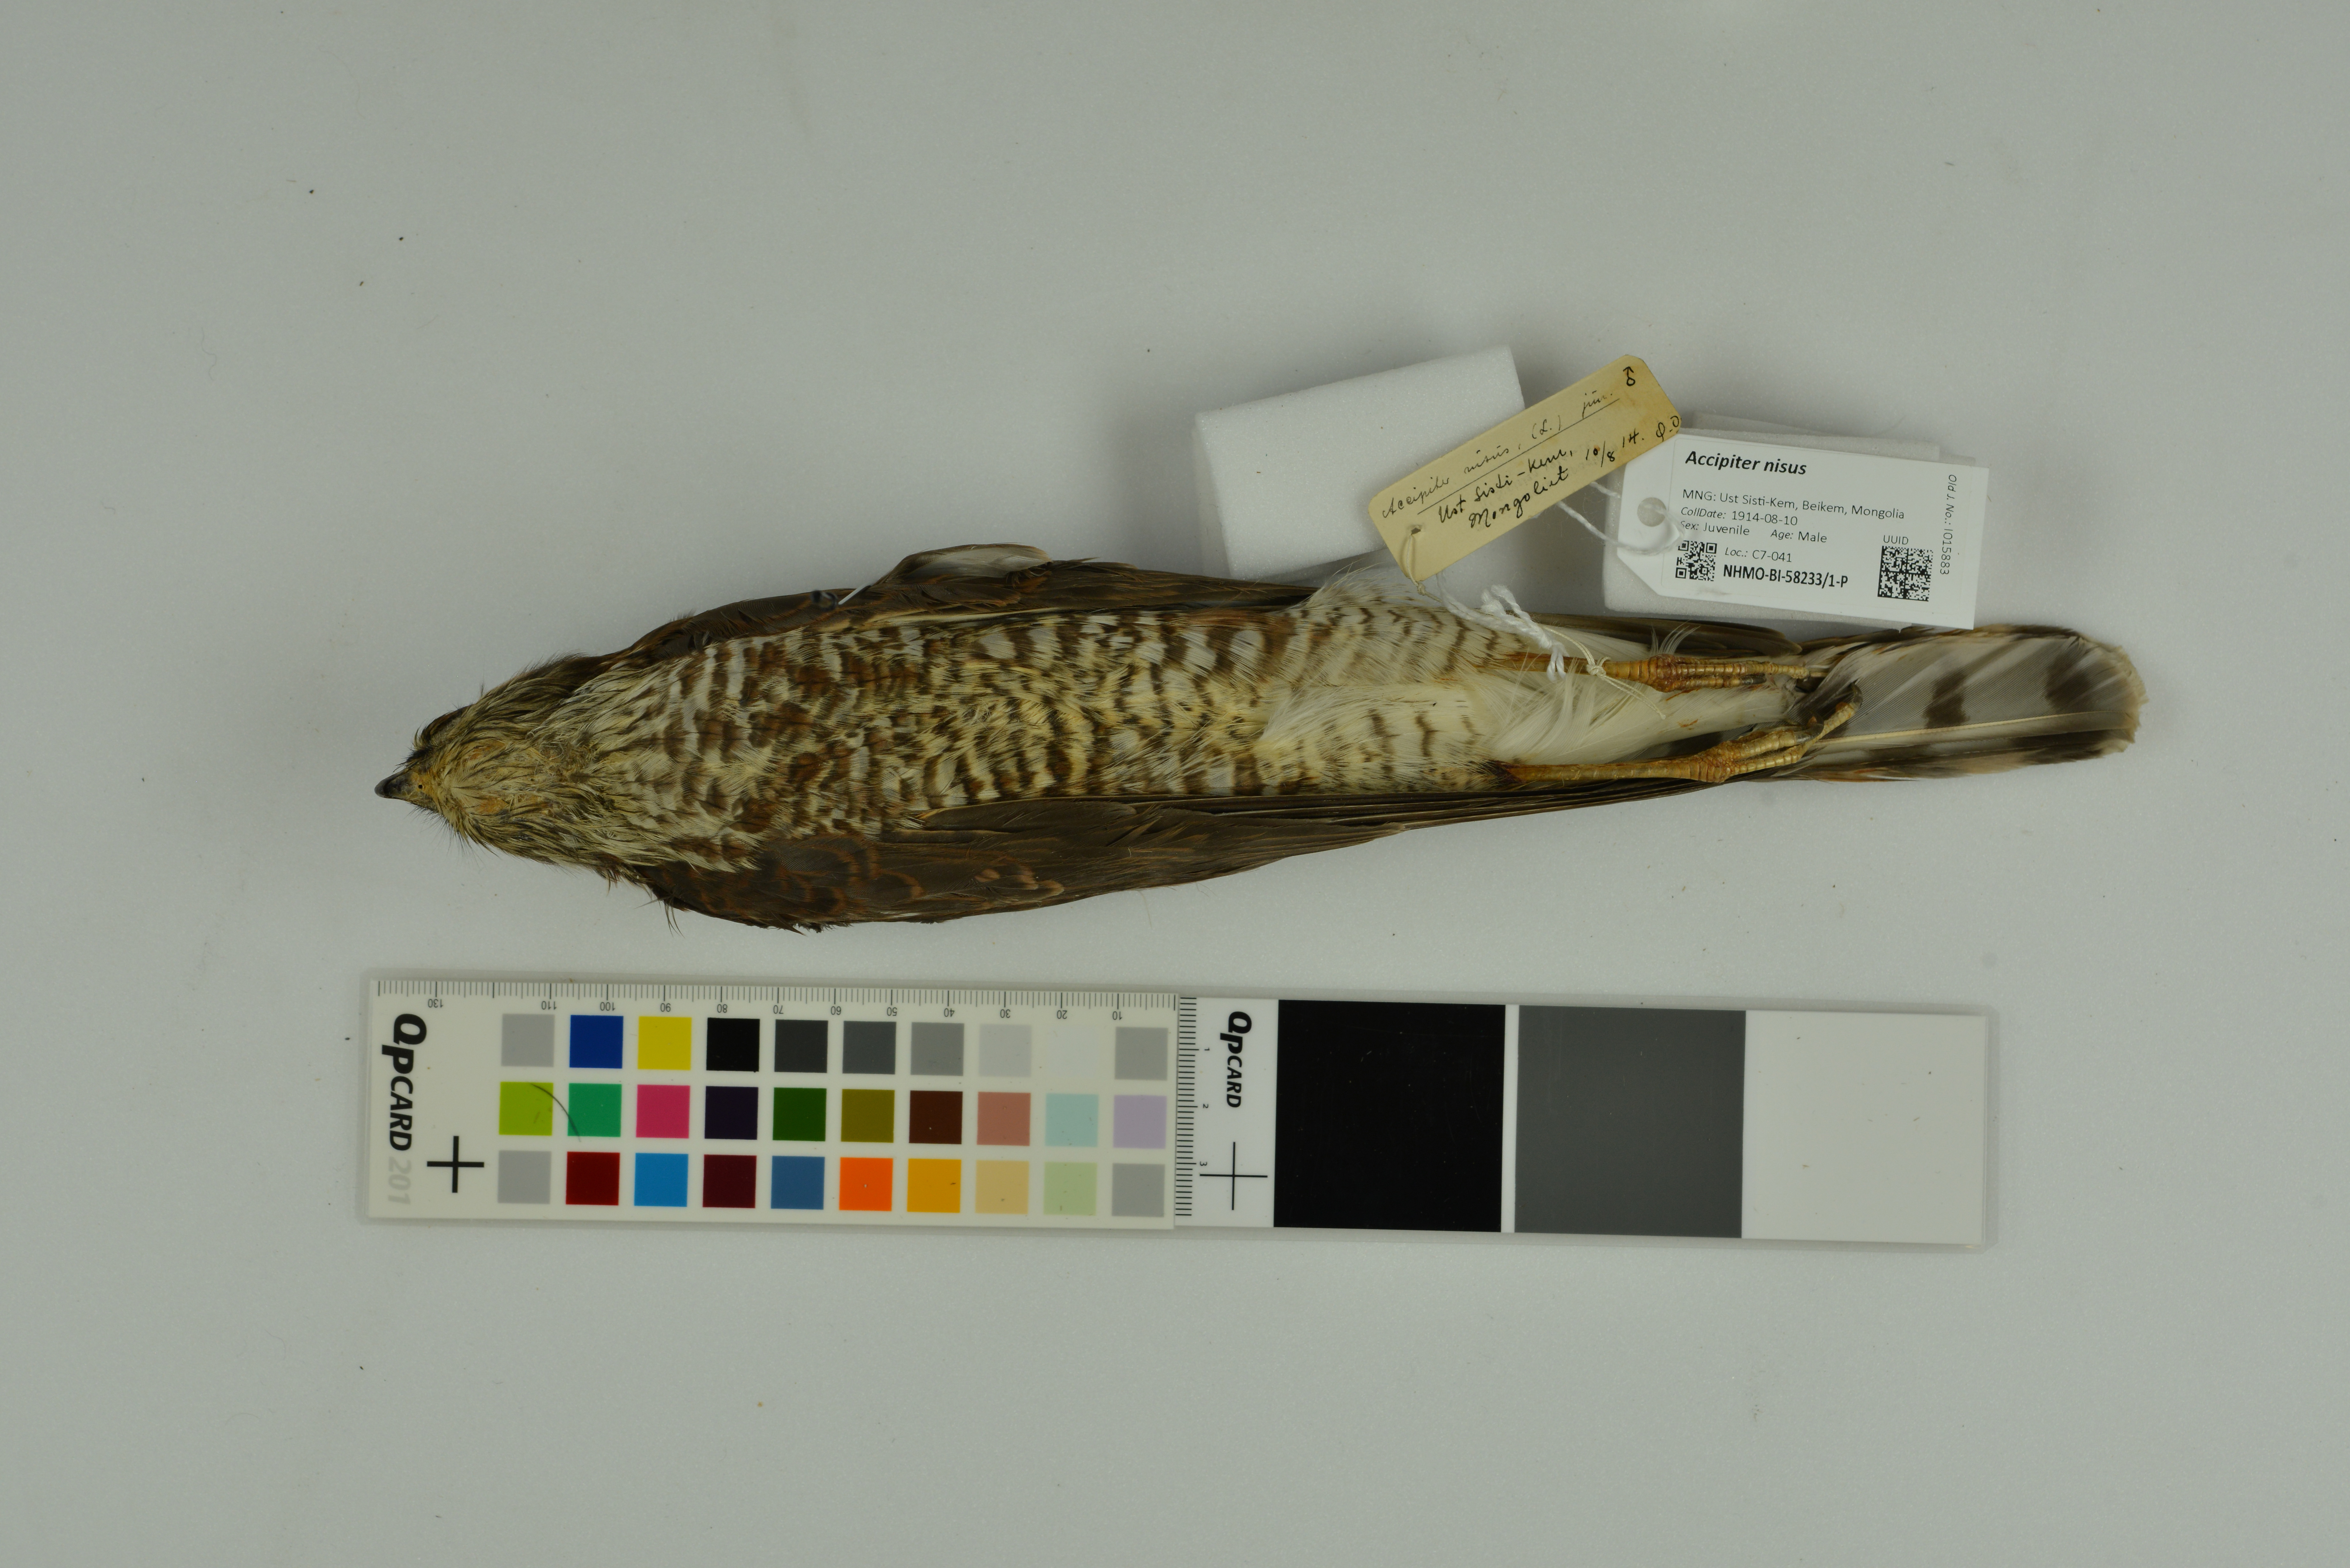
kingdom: Animalia
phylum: Chordata
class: Aves
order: Accipitriformes
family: Accipitridae
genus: Accipiter
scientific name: Accipiter nisus
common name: Eurasian sparrowhawk
